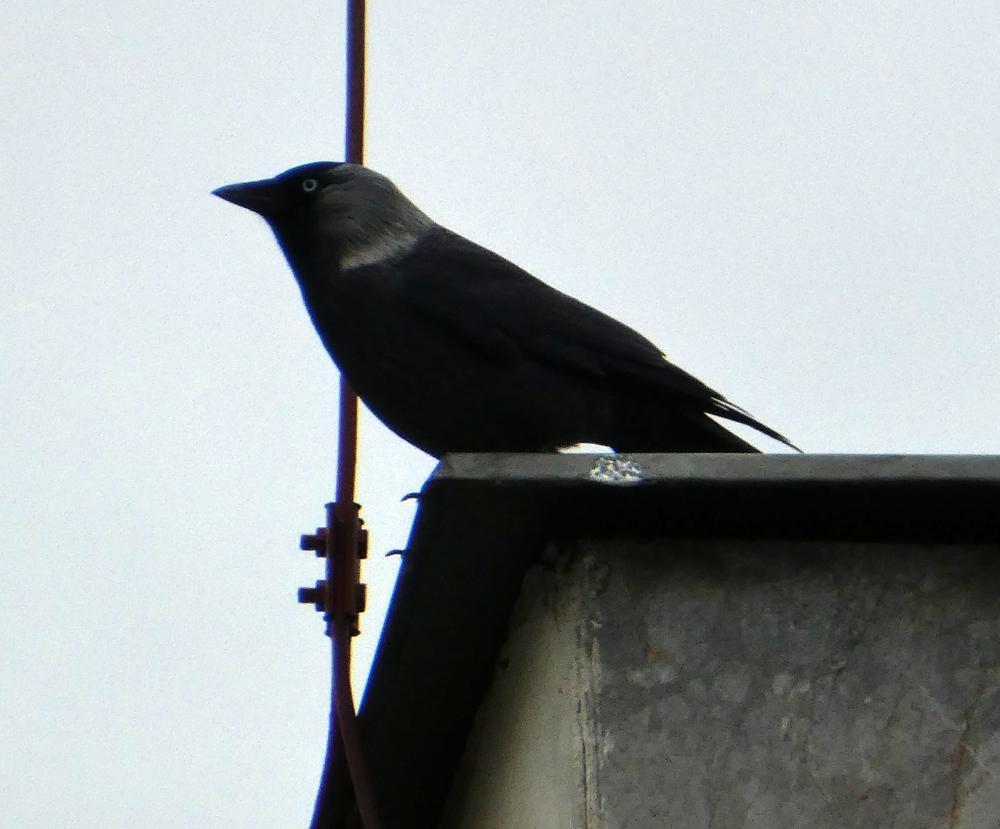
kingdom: Animalia
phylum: Chordata
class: Aves
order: Passeriformes
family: Corvidae
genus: Coloeus
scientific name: Coloeus monedula
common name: Western jackdaw
